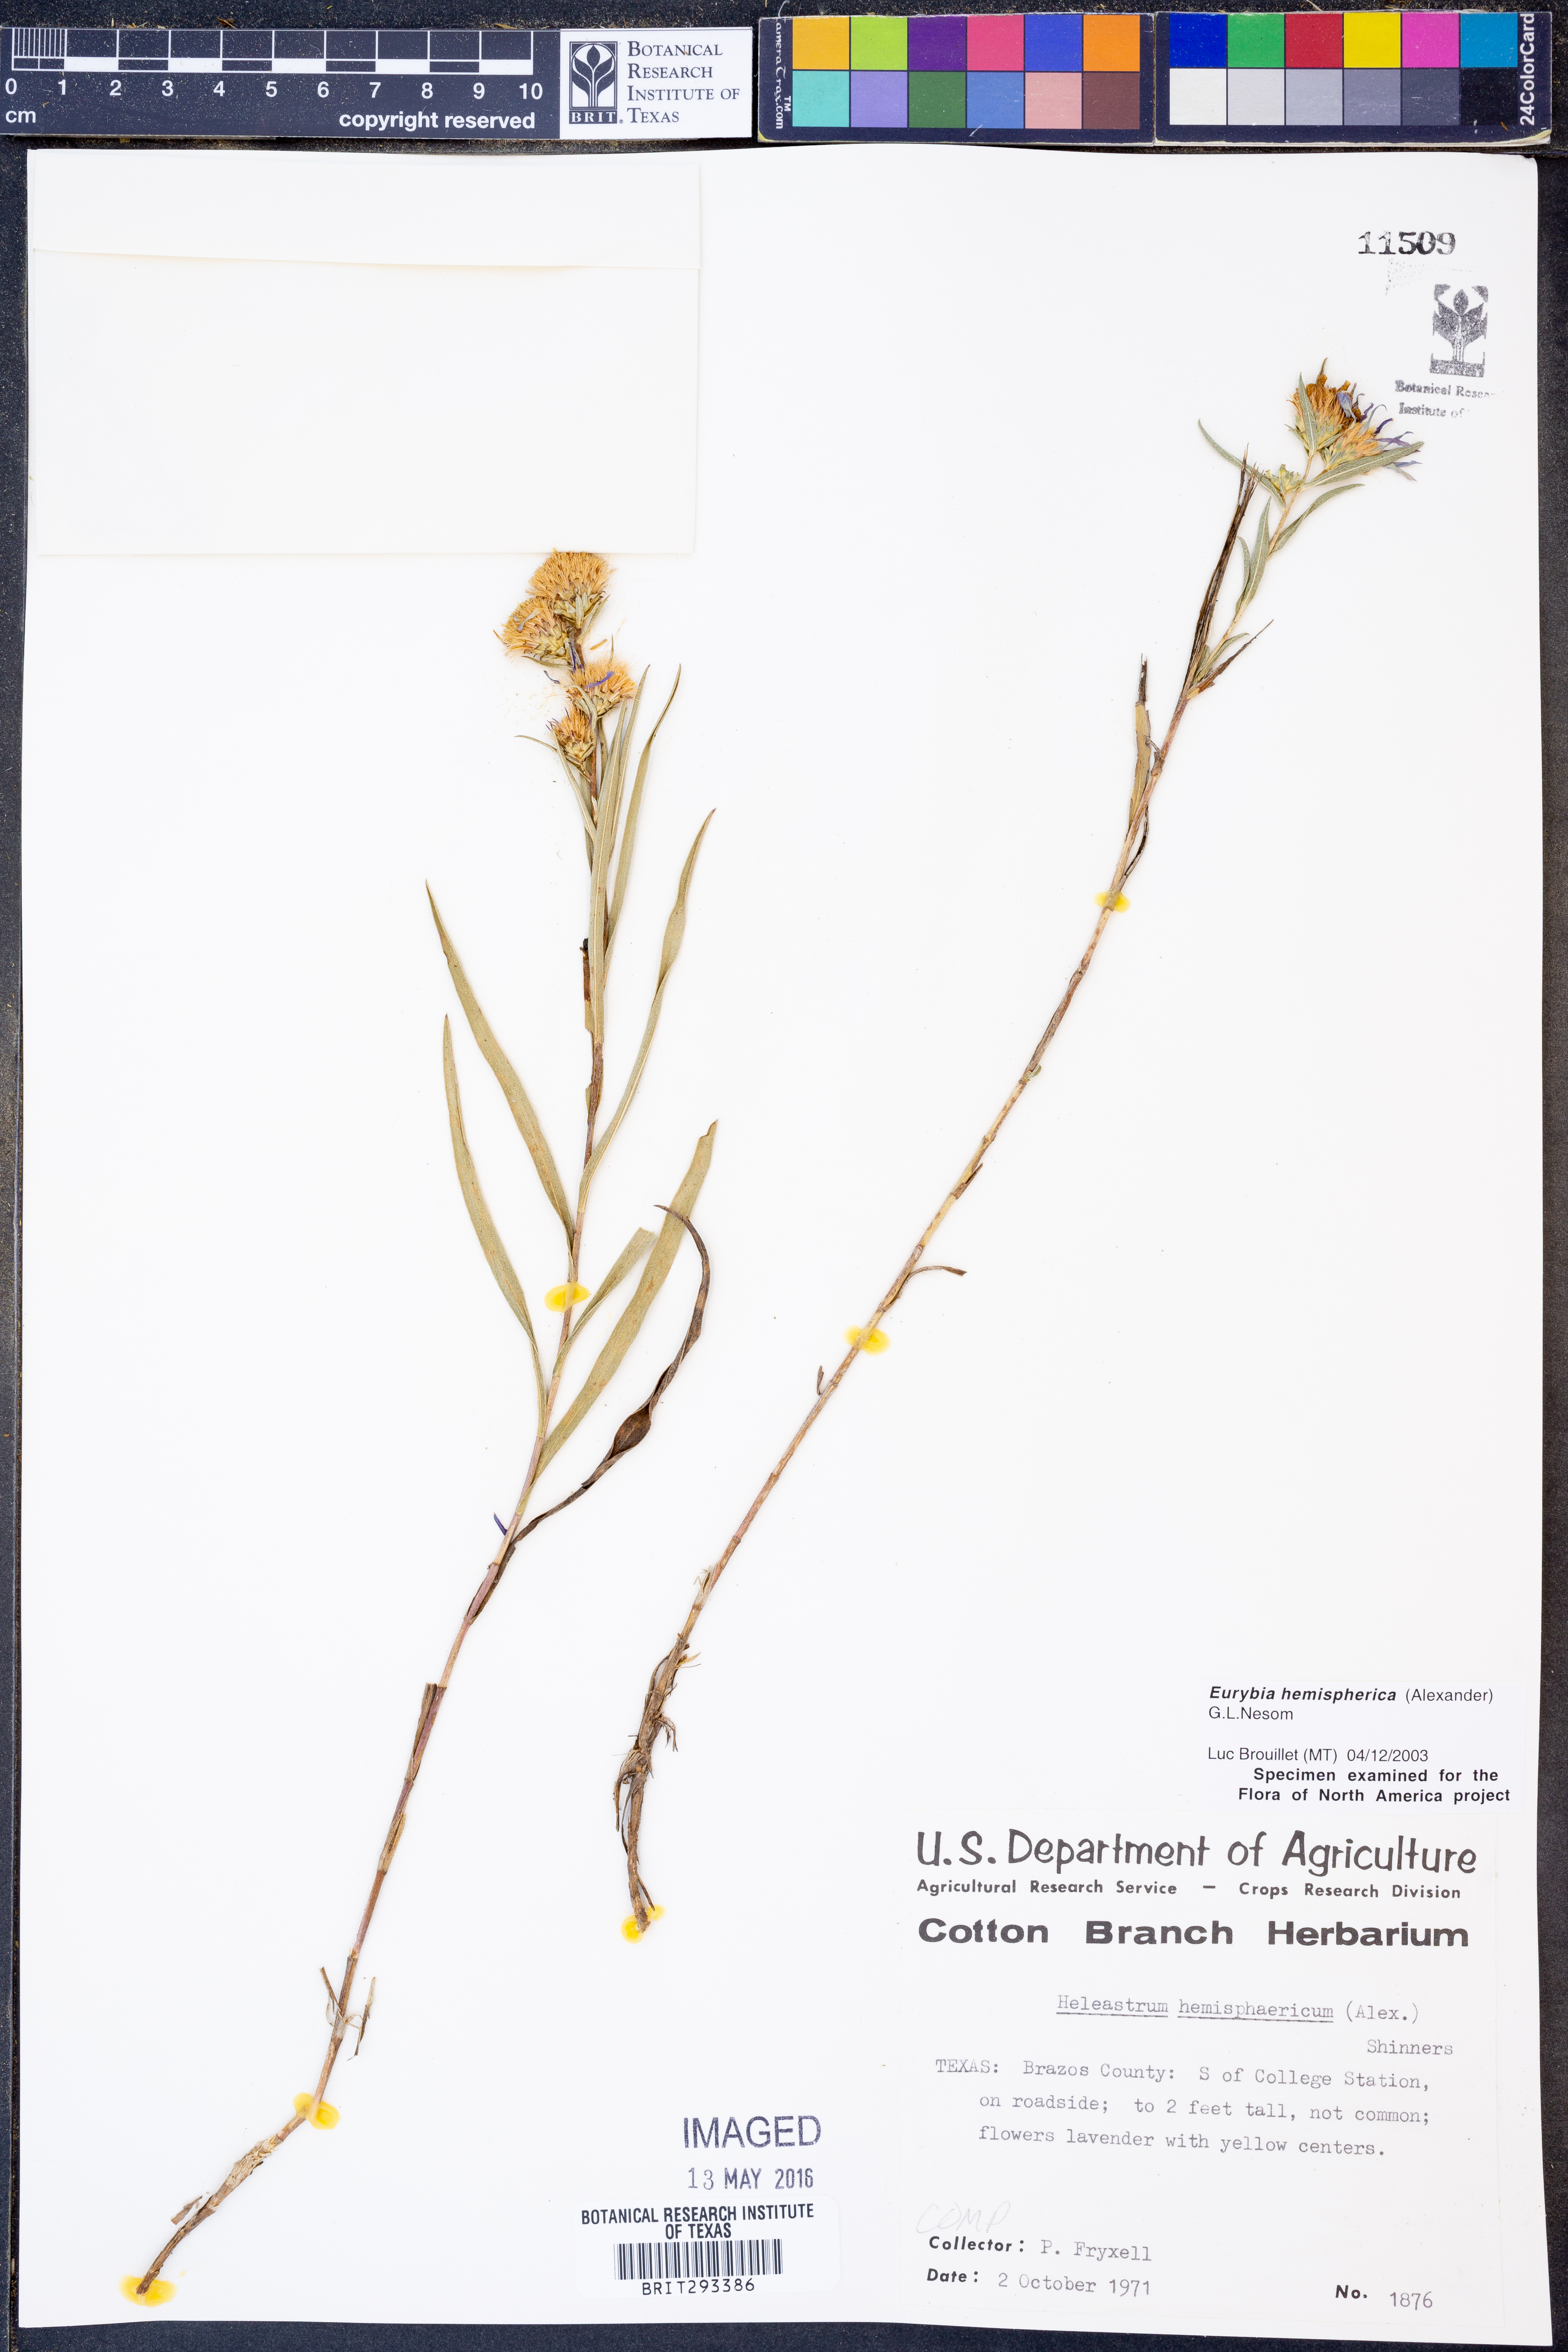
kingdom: Plantae
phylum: Tracheophyta
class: Magnoliopsida
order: Asterales
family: Asteraceae
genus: Eurybia
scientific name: Eurybia hemispherica
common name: Showy aster
